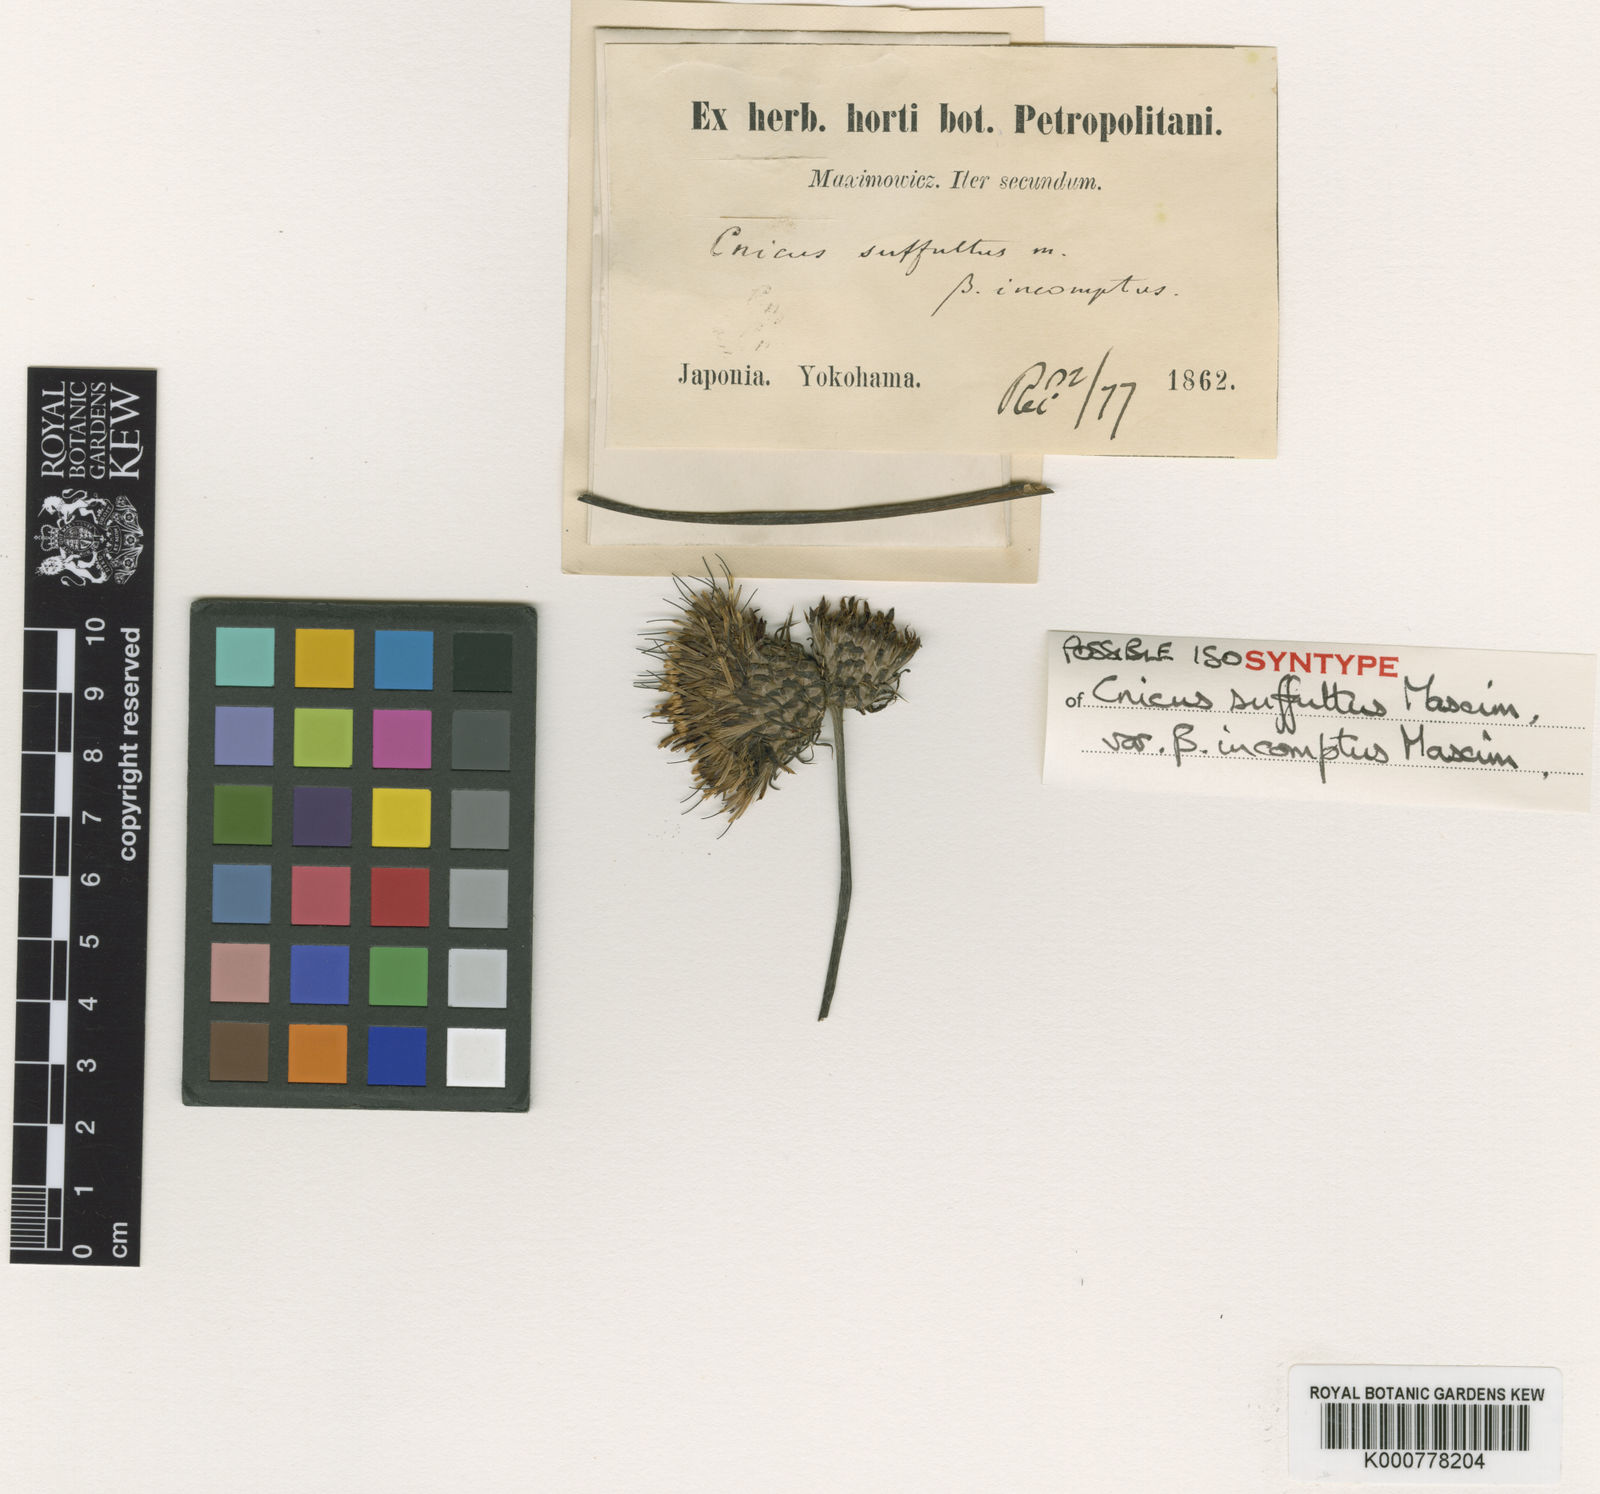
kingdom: Plantae
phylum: Tracheophyta
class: Magnoliopsida
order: Asterales
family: Asteraceae
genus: Cirsium
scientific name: Cirsium nipponicum
